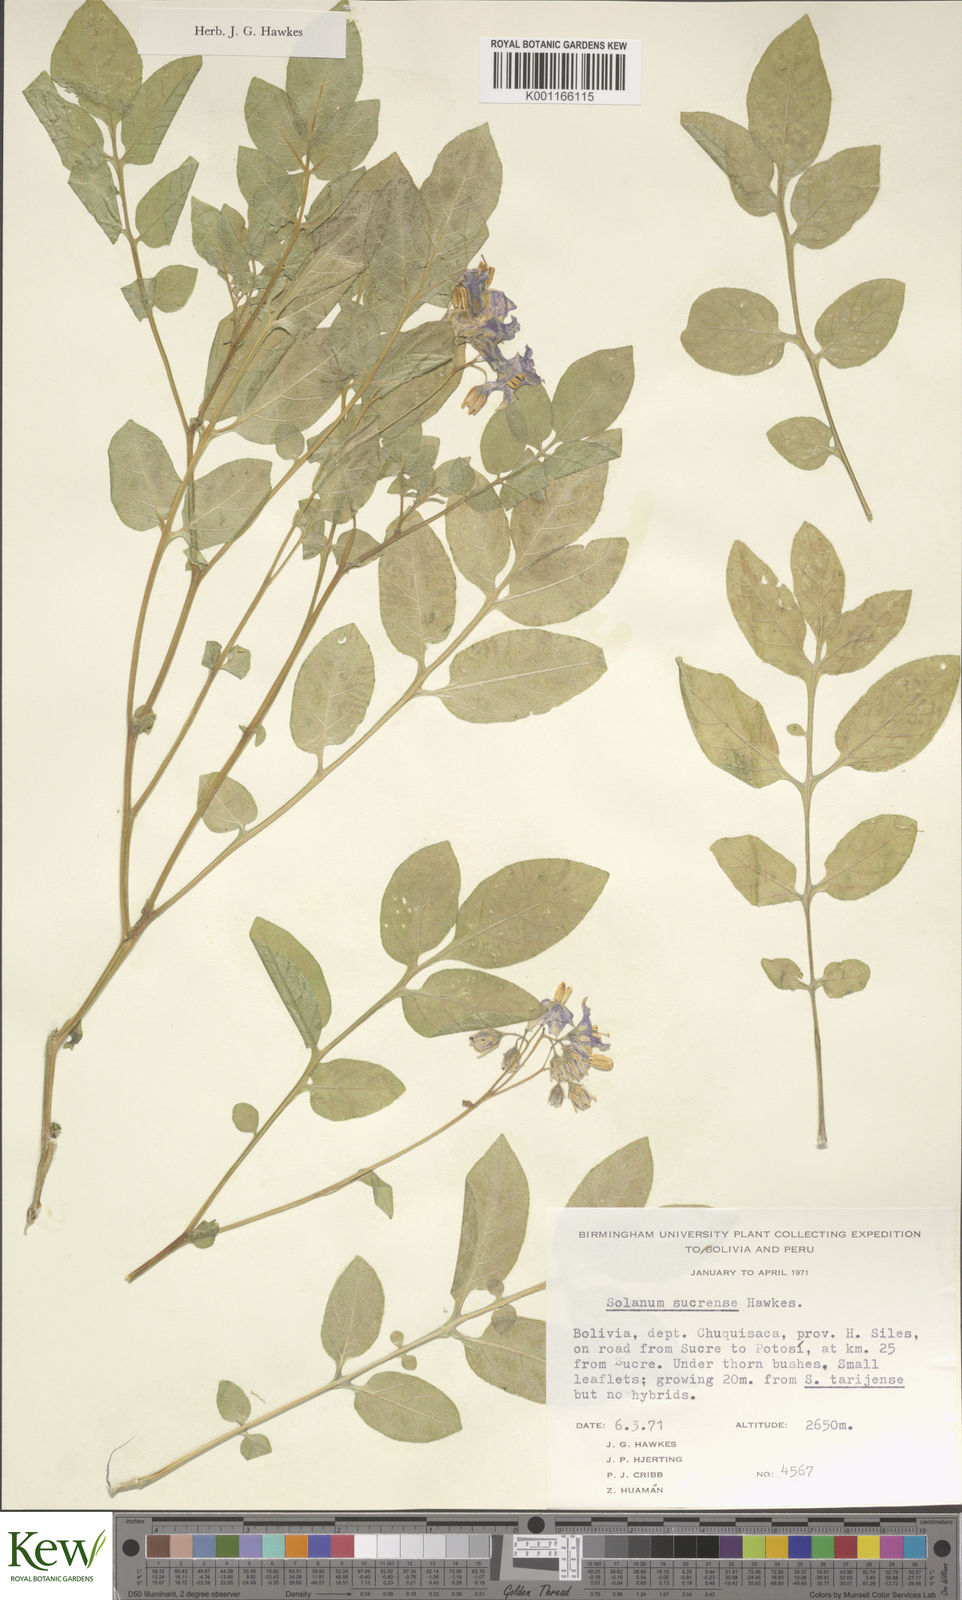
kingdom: Plantae
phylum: Tracheophyta
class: Magnoliopsida
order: Solanales
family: Solanaceae
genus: Solanum
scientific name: Solanum brevicaule
